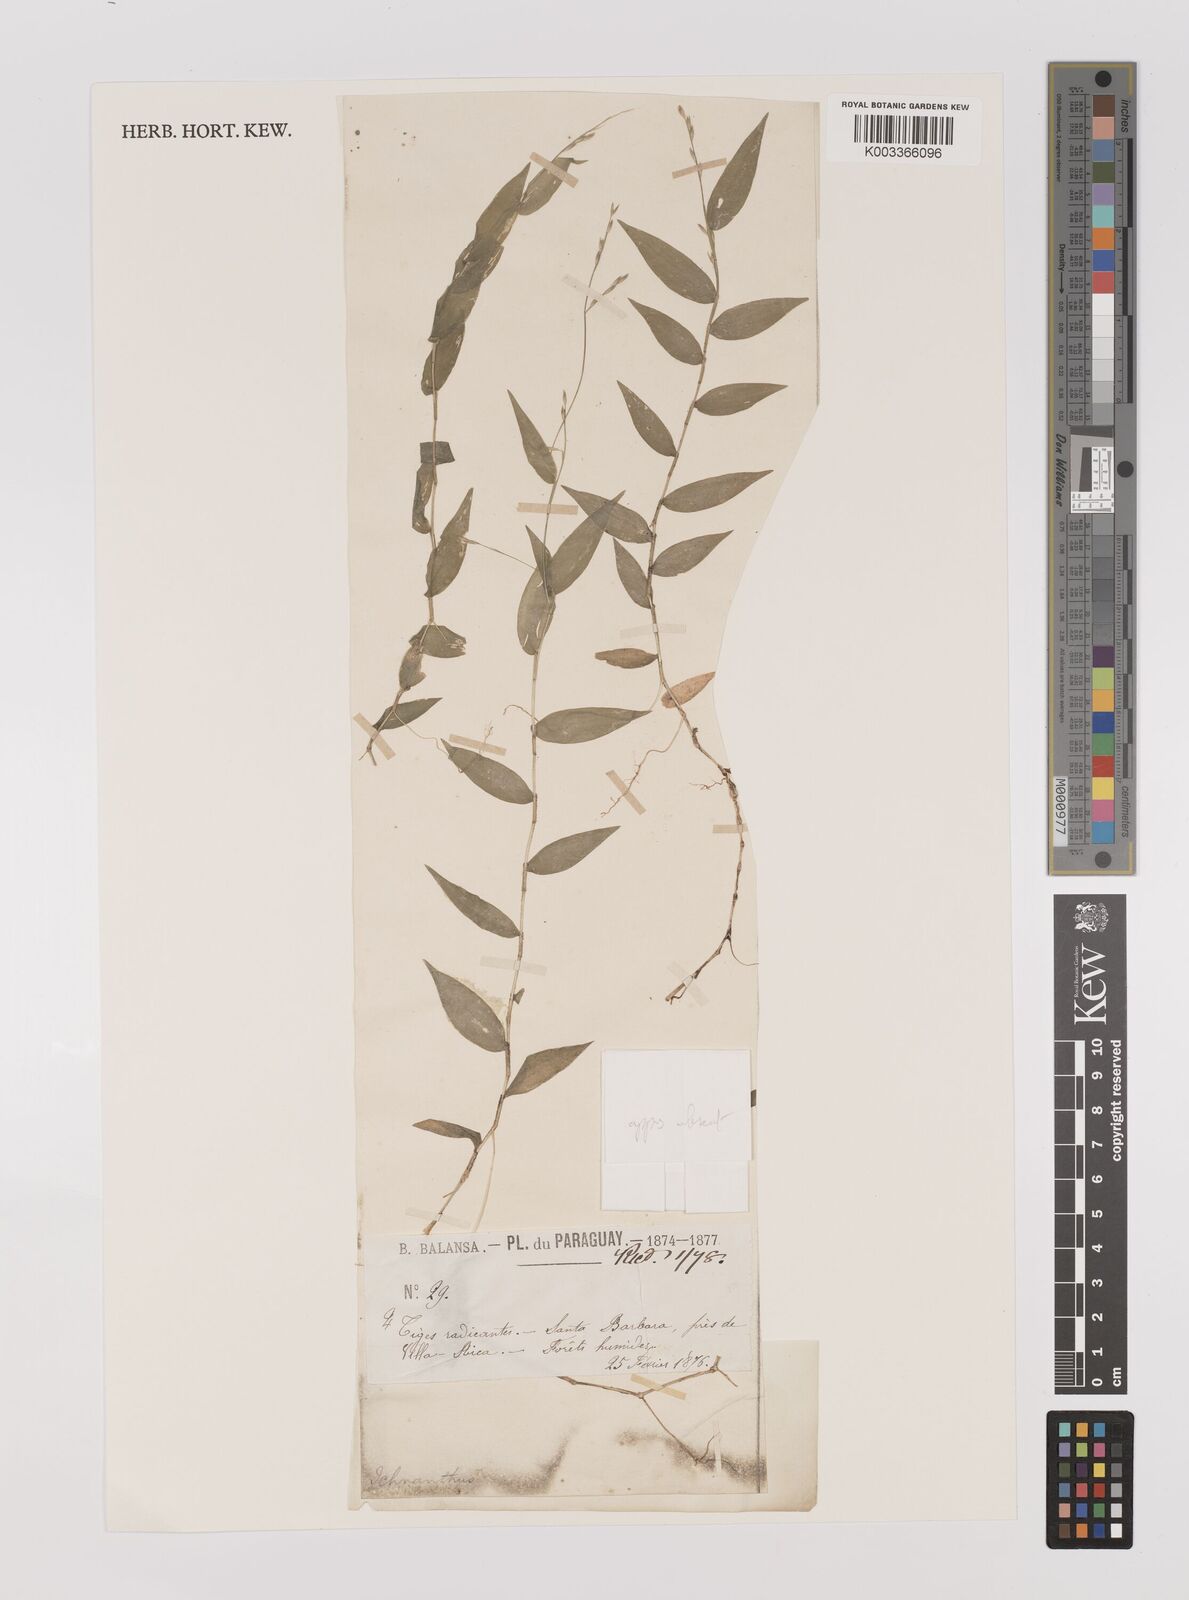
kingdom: Plantae
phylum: Tracheophyta
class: Liliopsida
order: Poales
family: Poaceae
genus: Ichnanthus
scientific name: Ichnanthus tenuis
